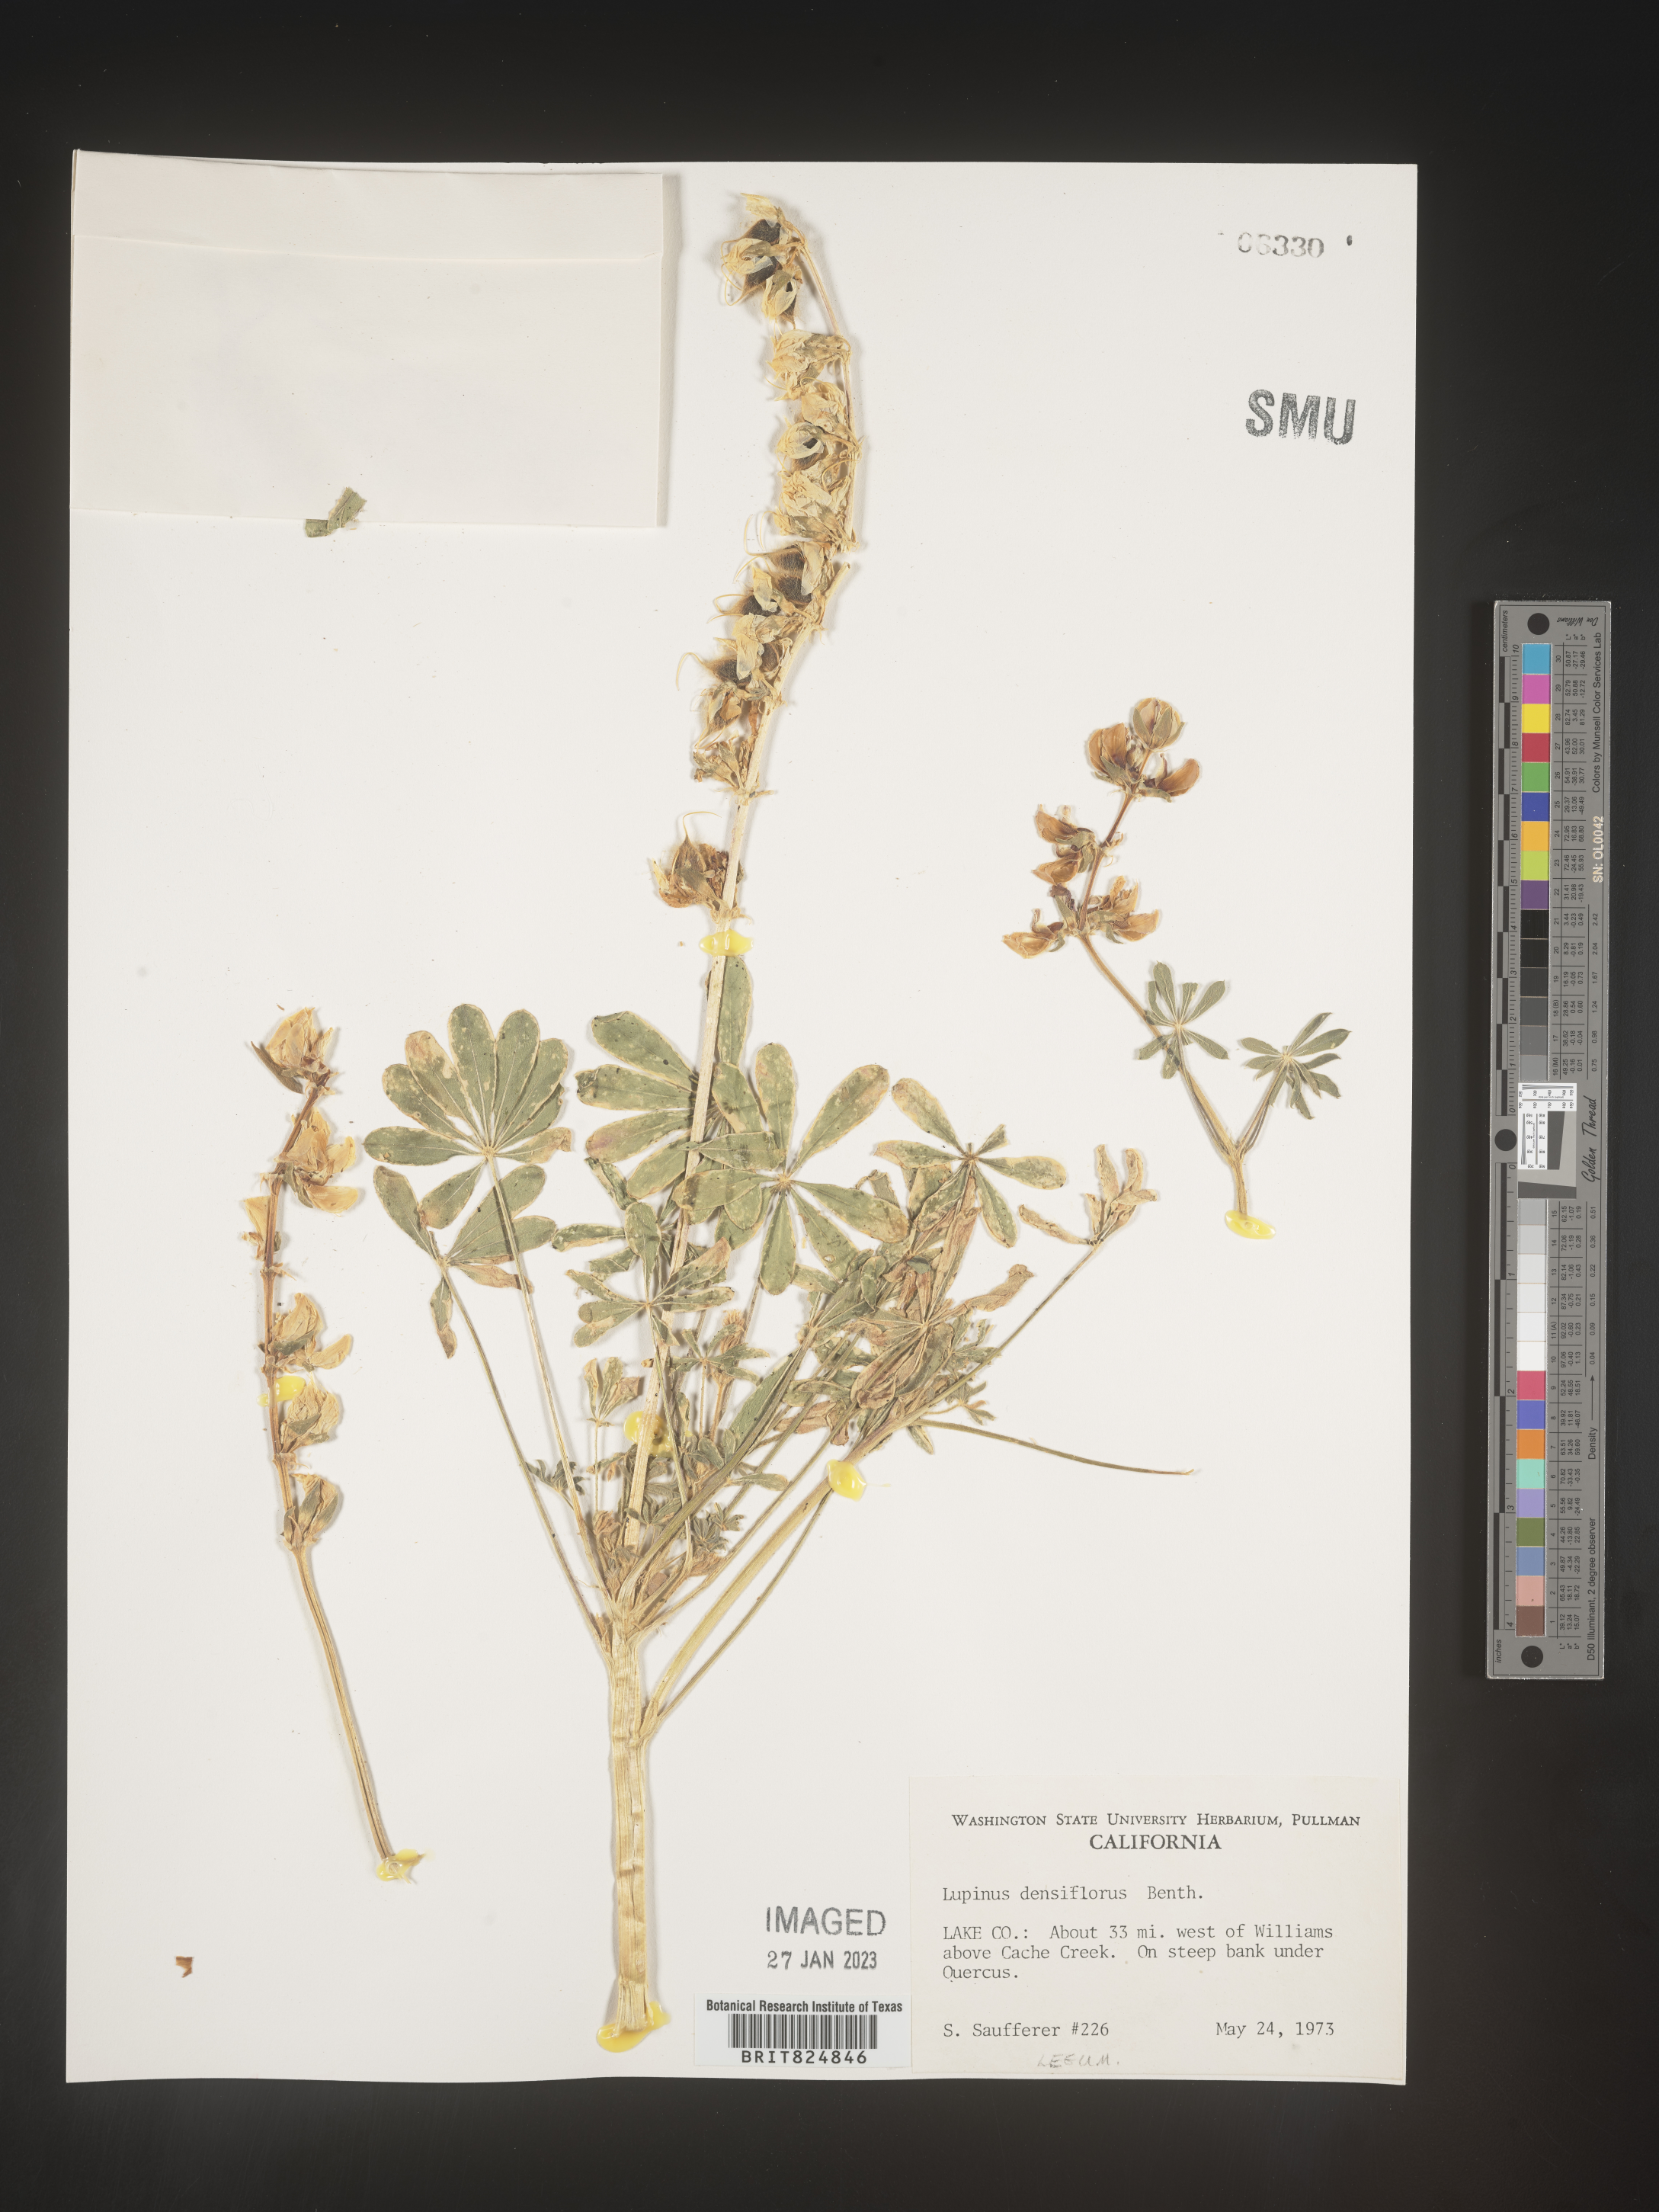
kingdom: Plantae
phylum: Tracheophyta
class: Magnoliopsida
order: Fabales
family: Fabaceae
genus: Lupinus
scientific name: Lupinus
